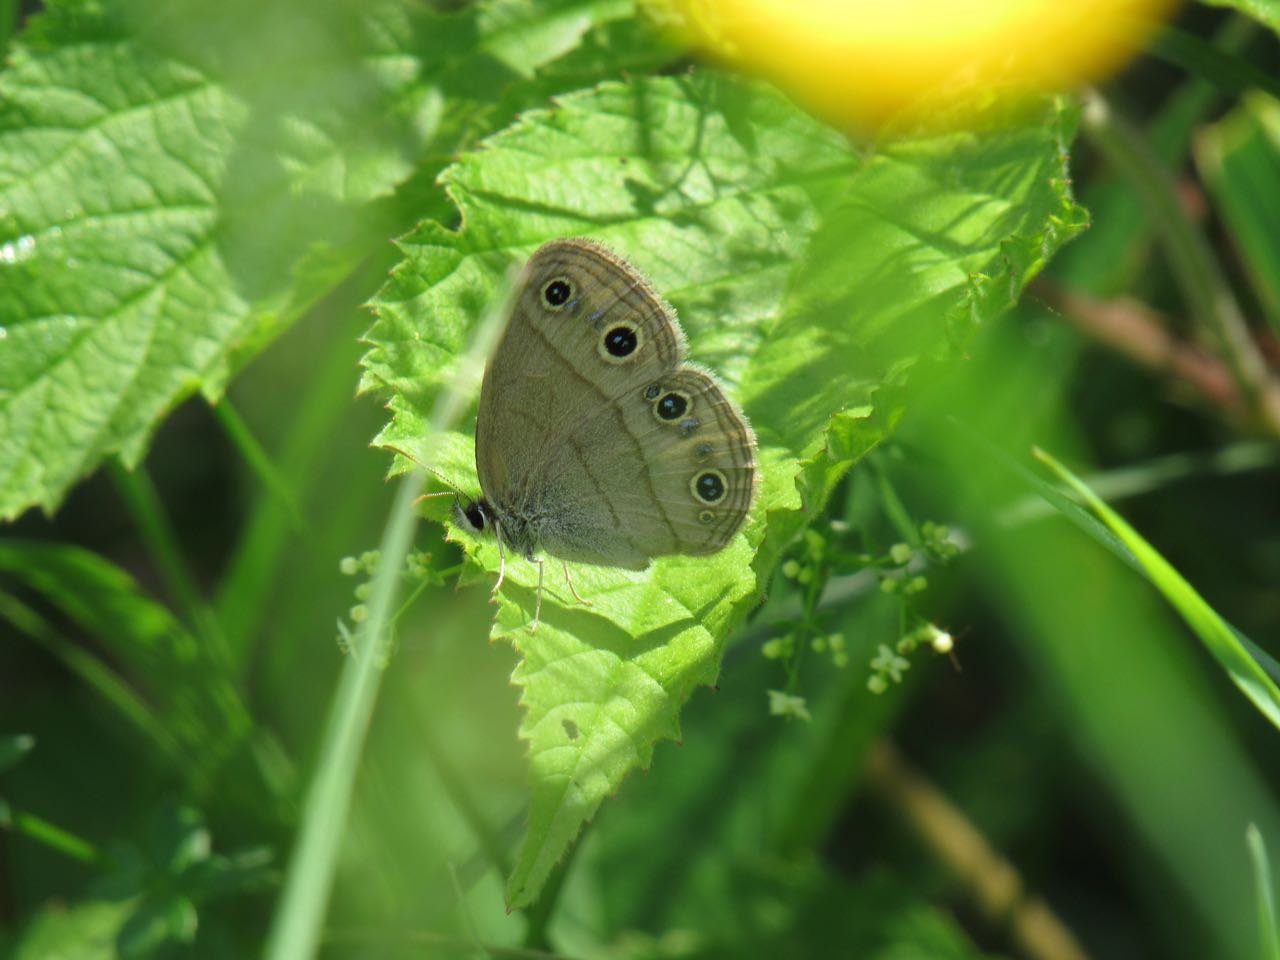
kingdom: Animalia
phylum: Arthropoda
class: Insecta
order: Lepidoptera
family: Nymphalidae
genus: Euptychia
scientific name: Euptychia cymela
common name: Little Wood Satyr
